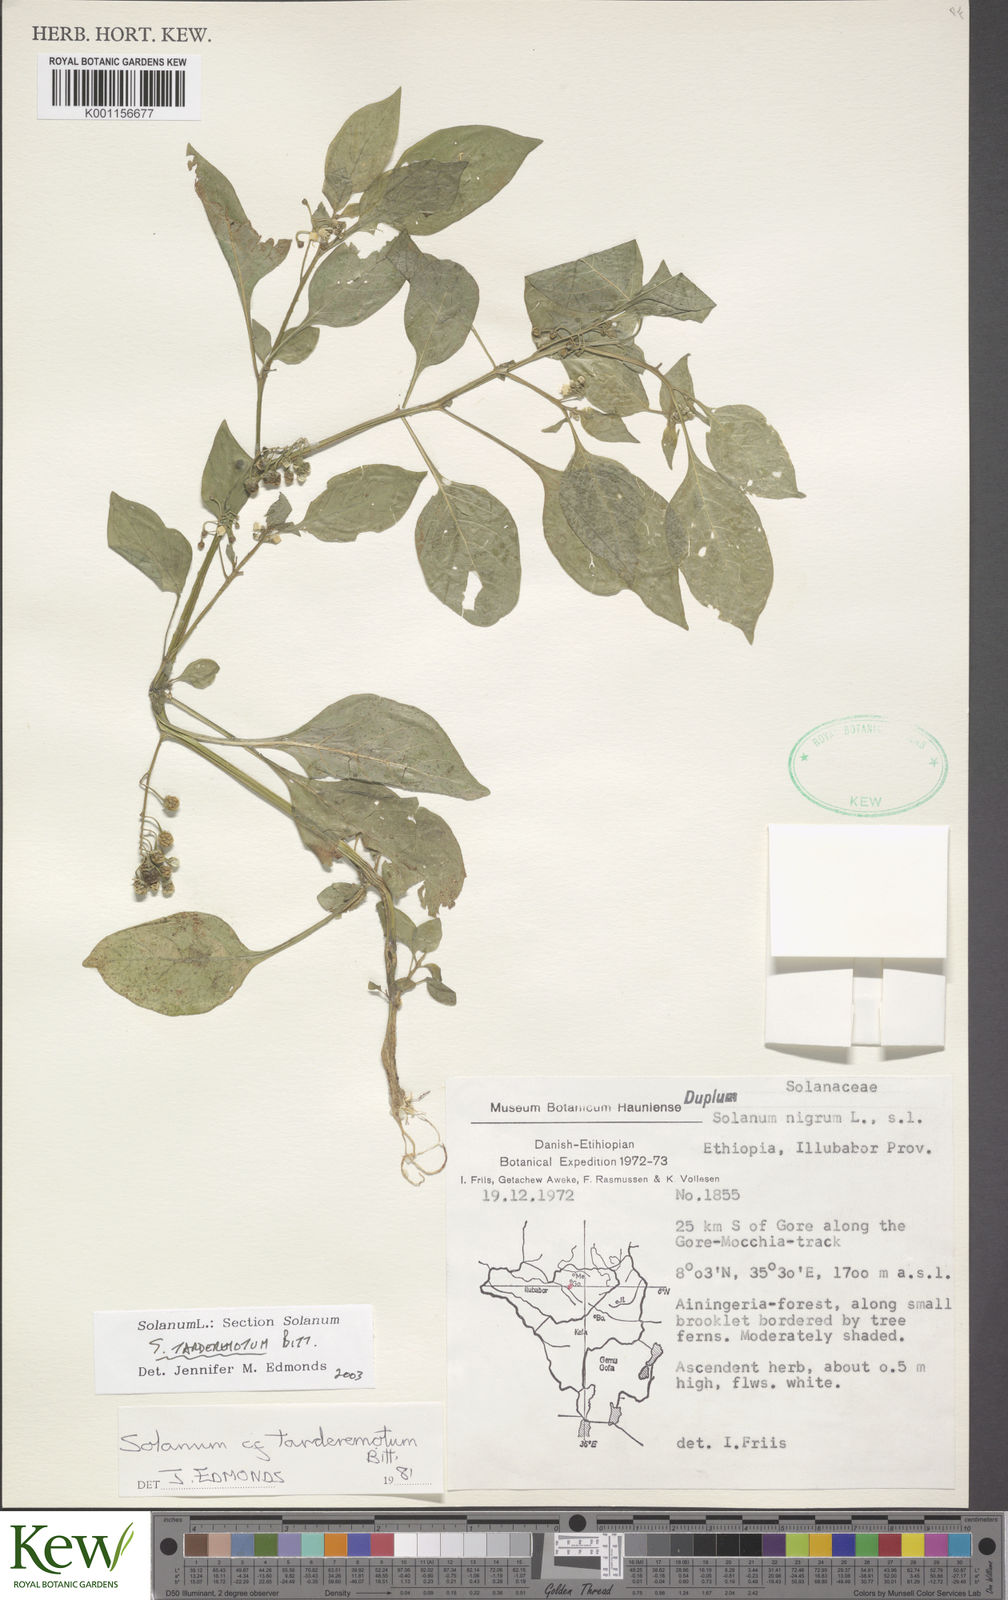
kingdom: Plantae
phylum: Tracheophyta
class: Magnoliopsida
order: Solanales
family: Solanaceae
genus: Solanum
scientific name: Solanum tarderemotum
